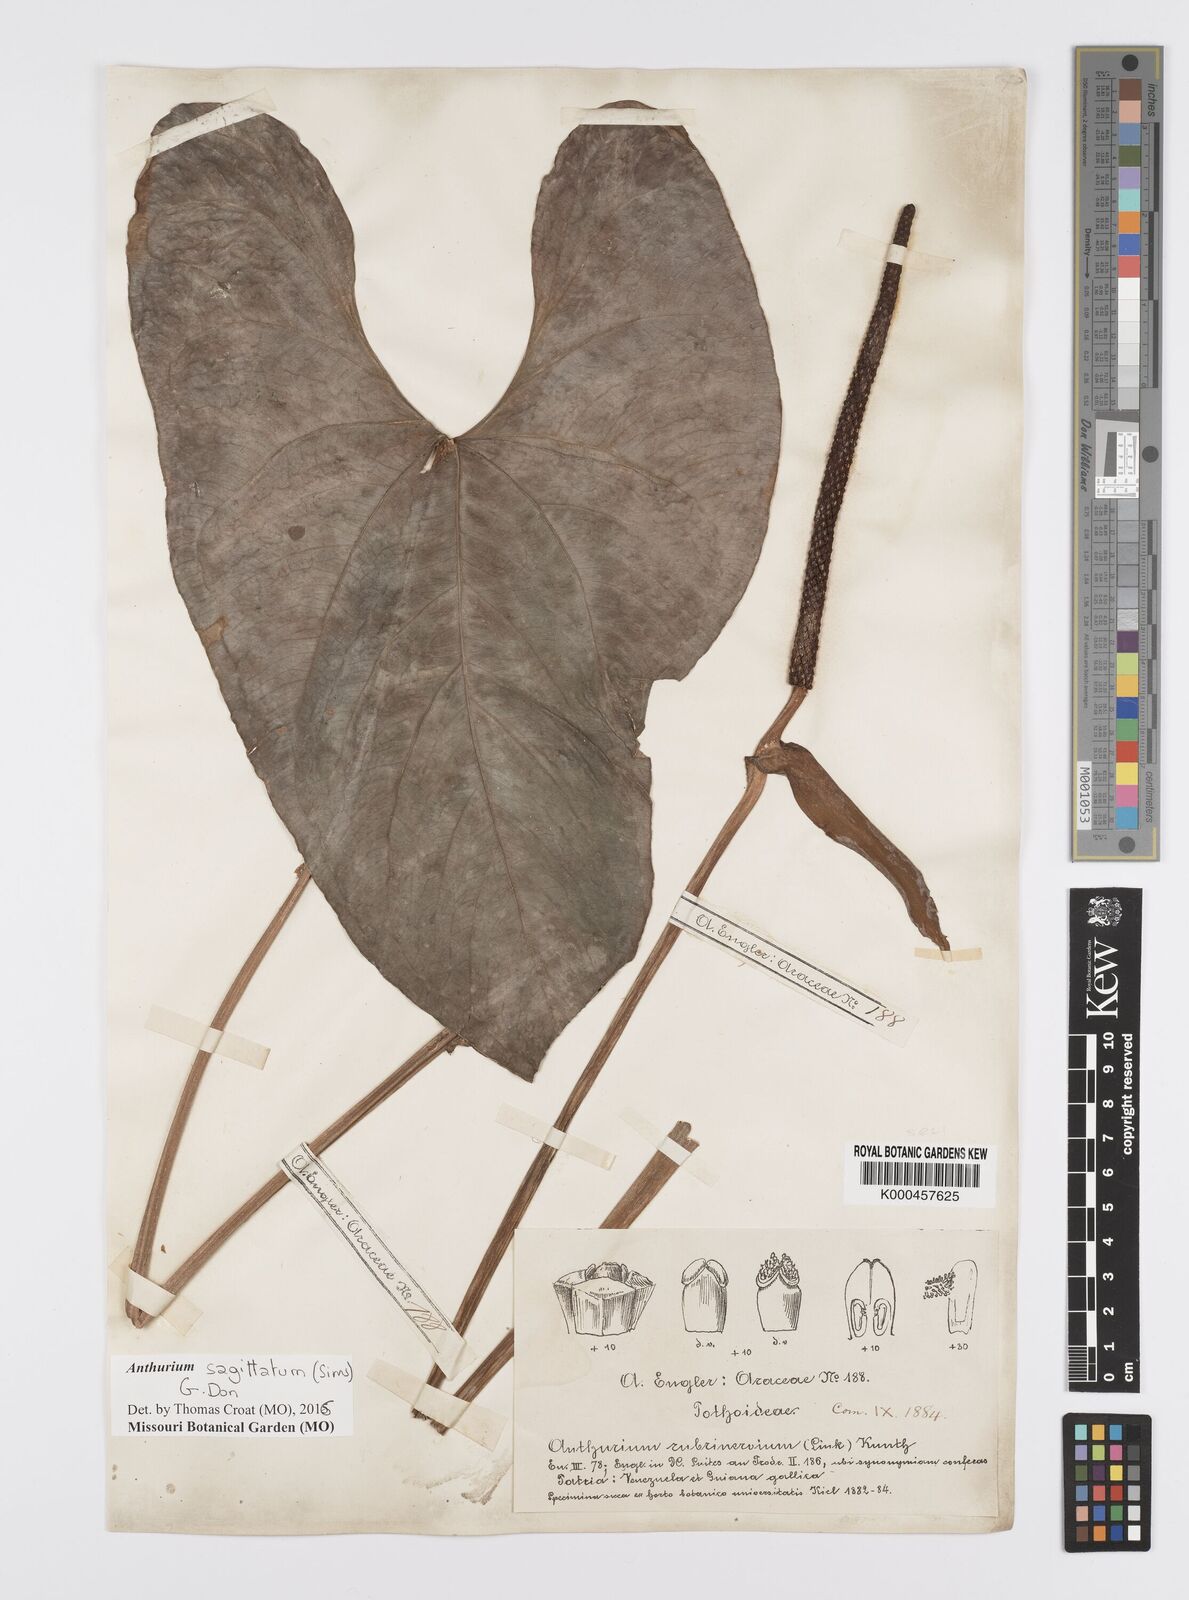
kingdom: Plantae
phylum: Tracheophyta
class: Liliopsida
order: Alismatales
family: Araceae
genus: Anthurium
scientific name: Anthurium sagittatum
